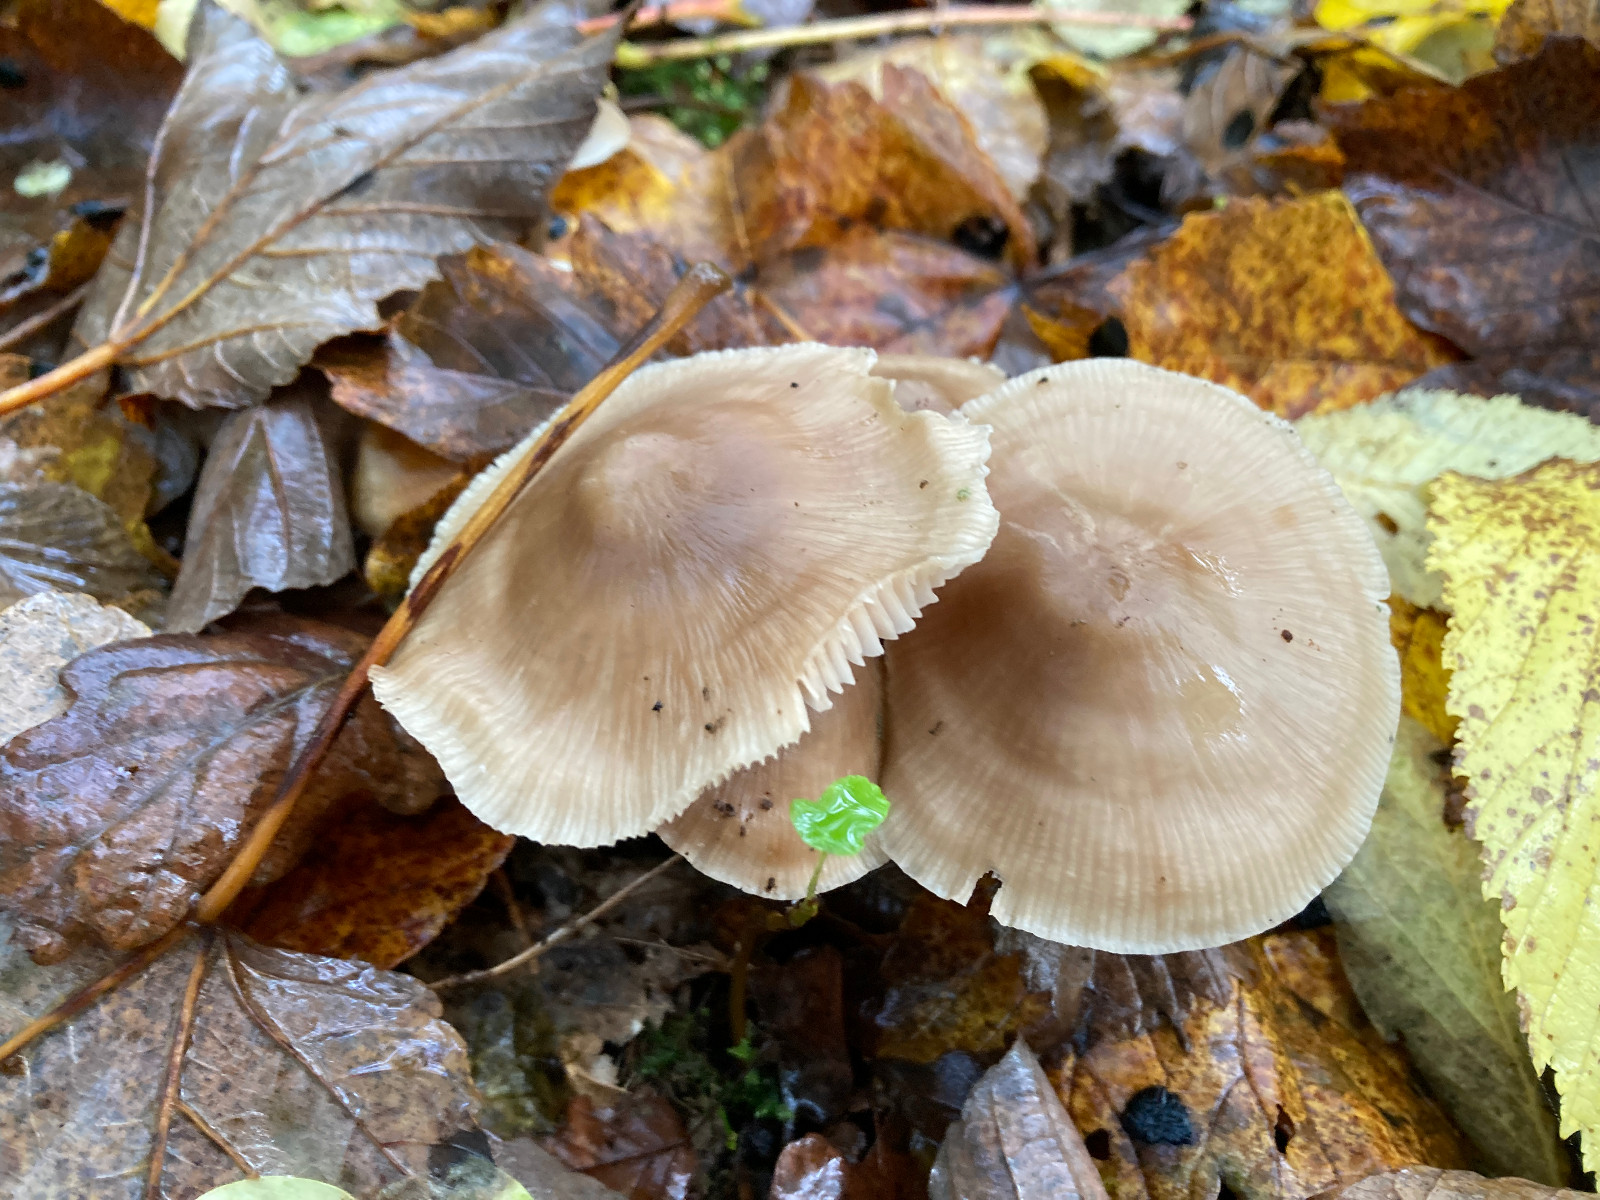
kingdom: Fungi
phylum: Basidiomycota
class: Agaricomycetes
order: Agaricales
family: Mycenaceae
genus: Mycena
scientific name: Mycena galericulata
